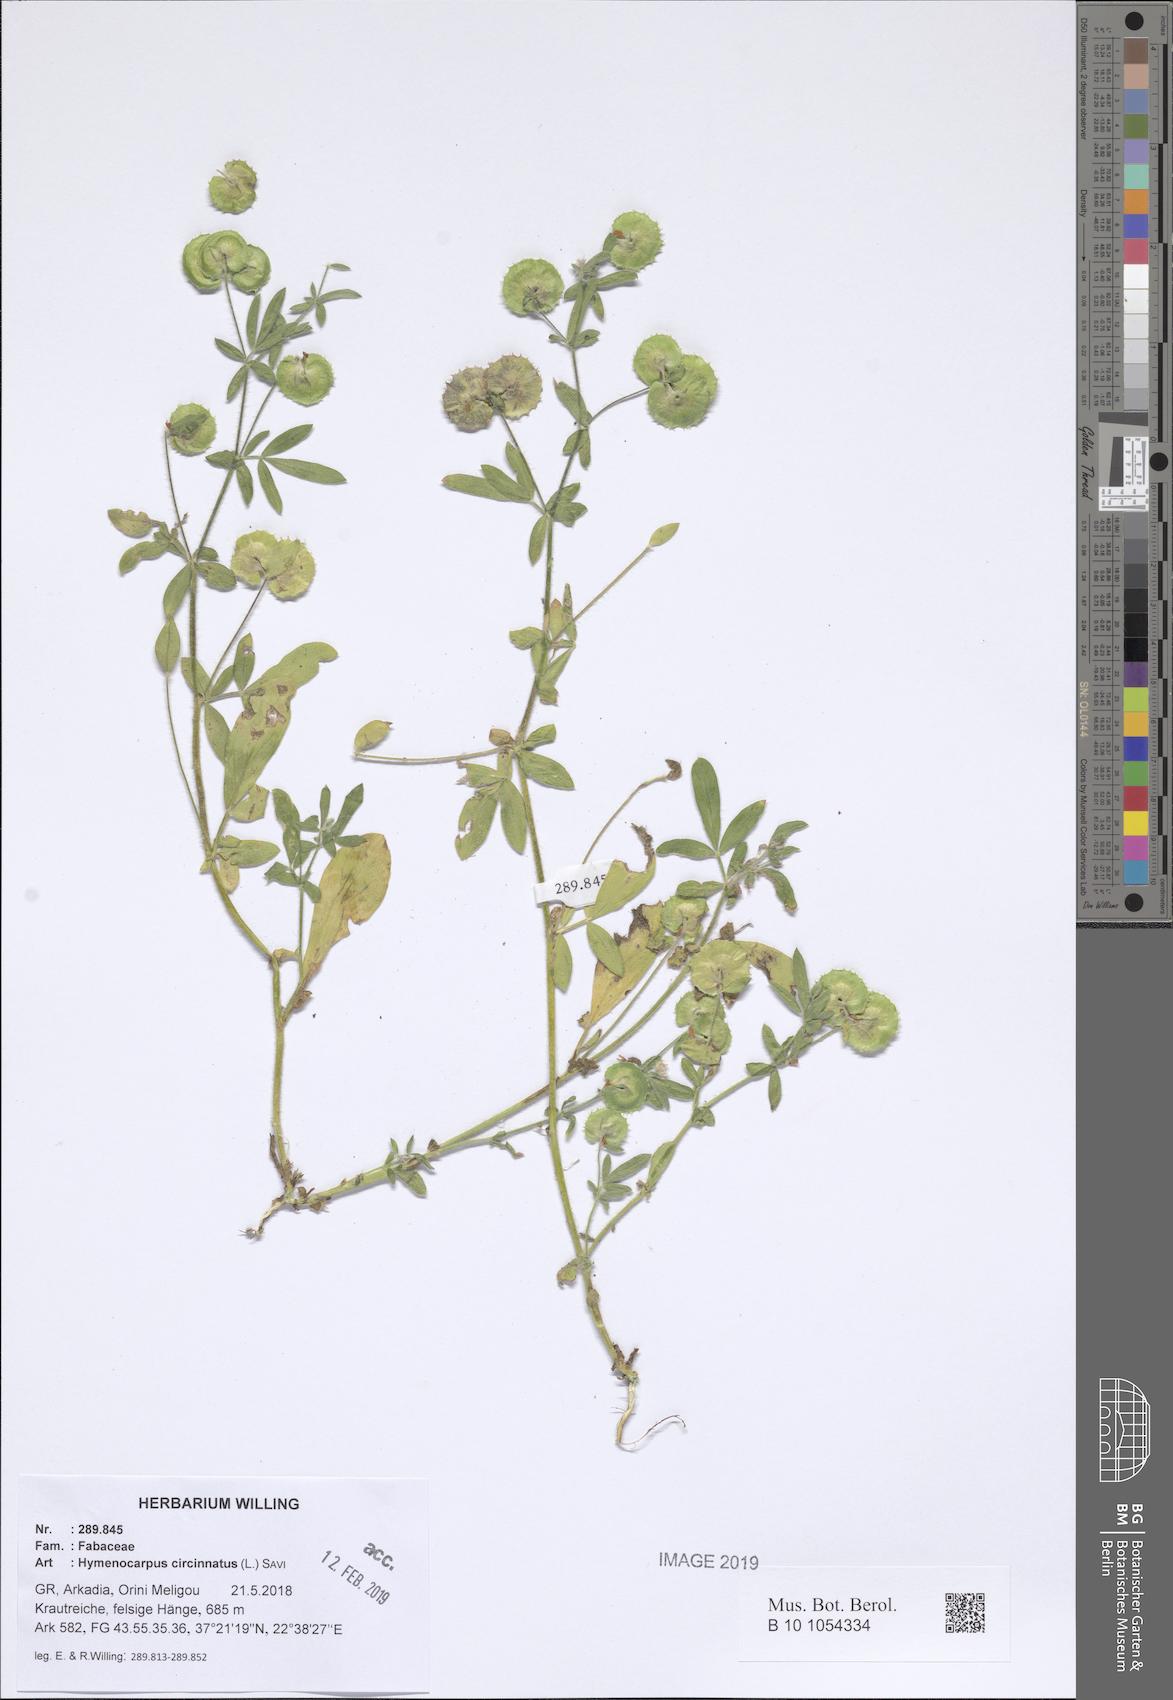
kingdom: Plantae
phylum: Tracheophyta
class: Magnoliopsida
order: Fabales
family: Fabaceae
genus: Anthyllis
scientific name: Anthyllis circinnata
